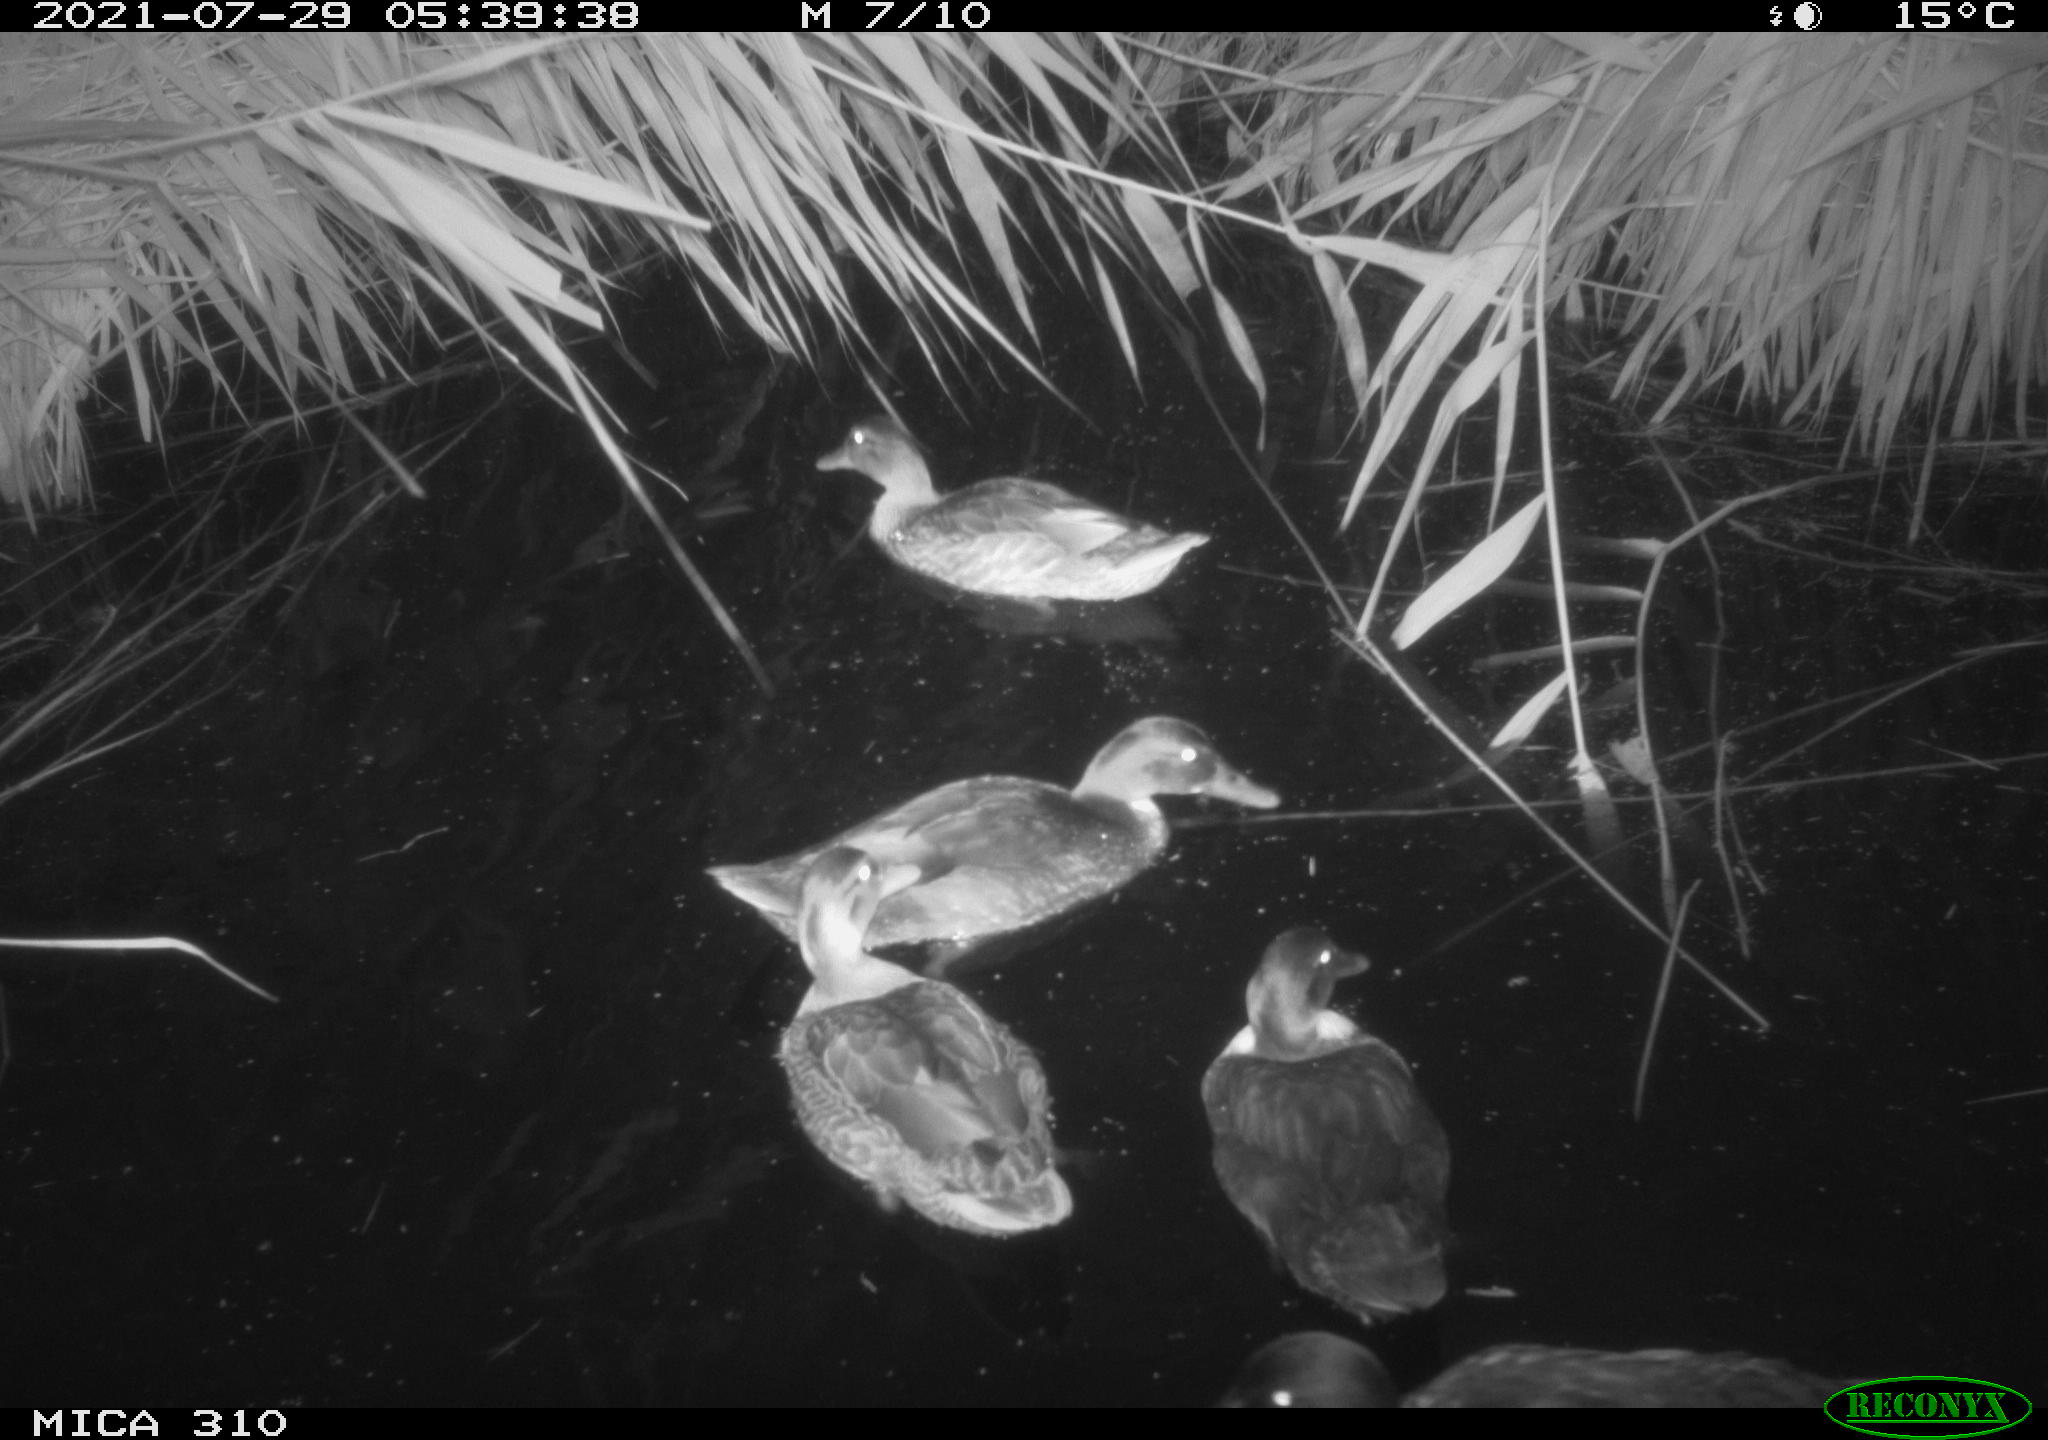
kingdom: Animalia
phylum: Chordata
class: Aves
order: Anseriformes
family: Anatidae
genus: Anas
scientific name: Anas platyrhynchos
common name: Mallard
